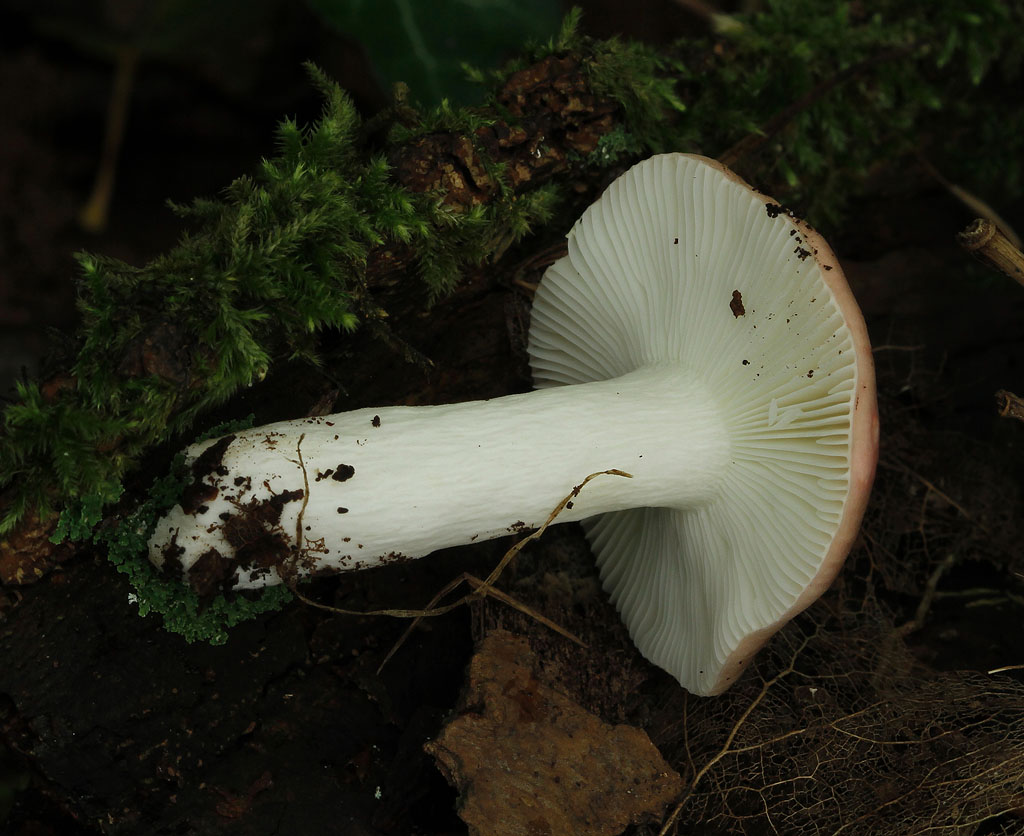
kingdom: Fungi
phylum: Basidiomycota
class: Agaricomycetes
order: Russulales
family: Russulaceae
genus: Russula
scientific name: Russula pelargonia
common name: pelargonie-skørhat
